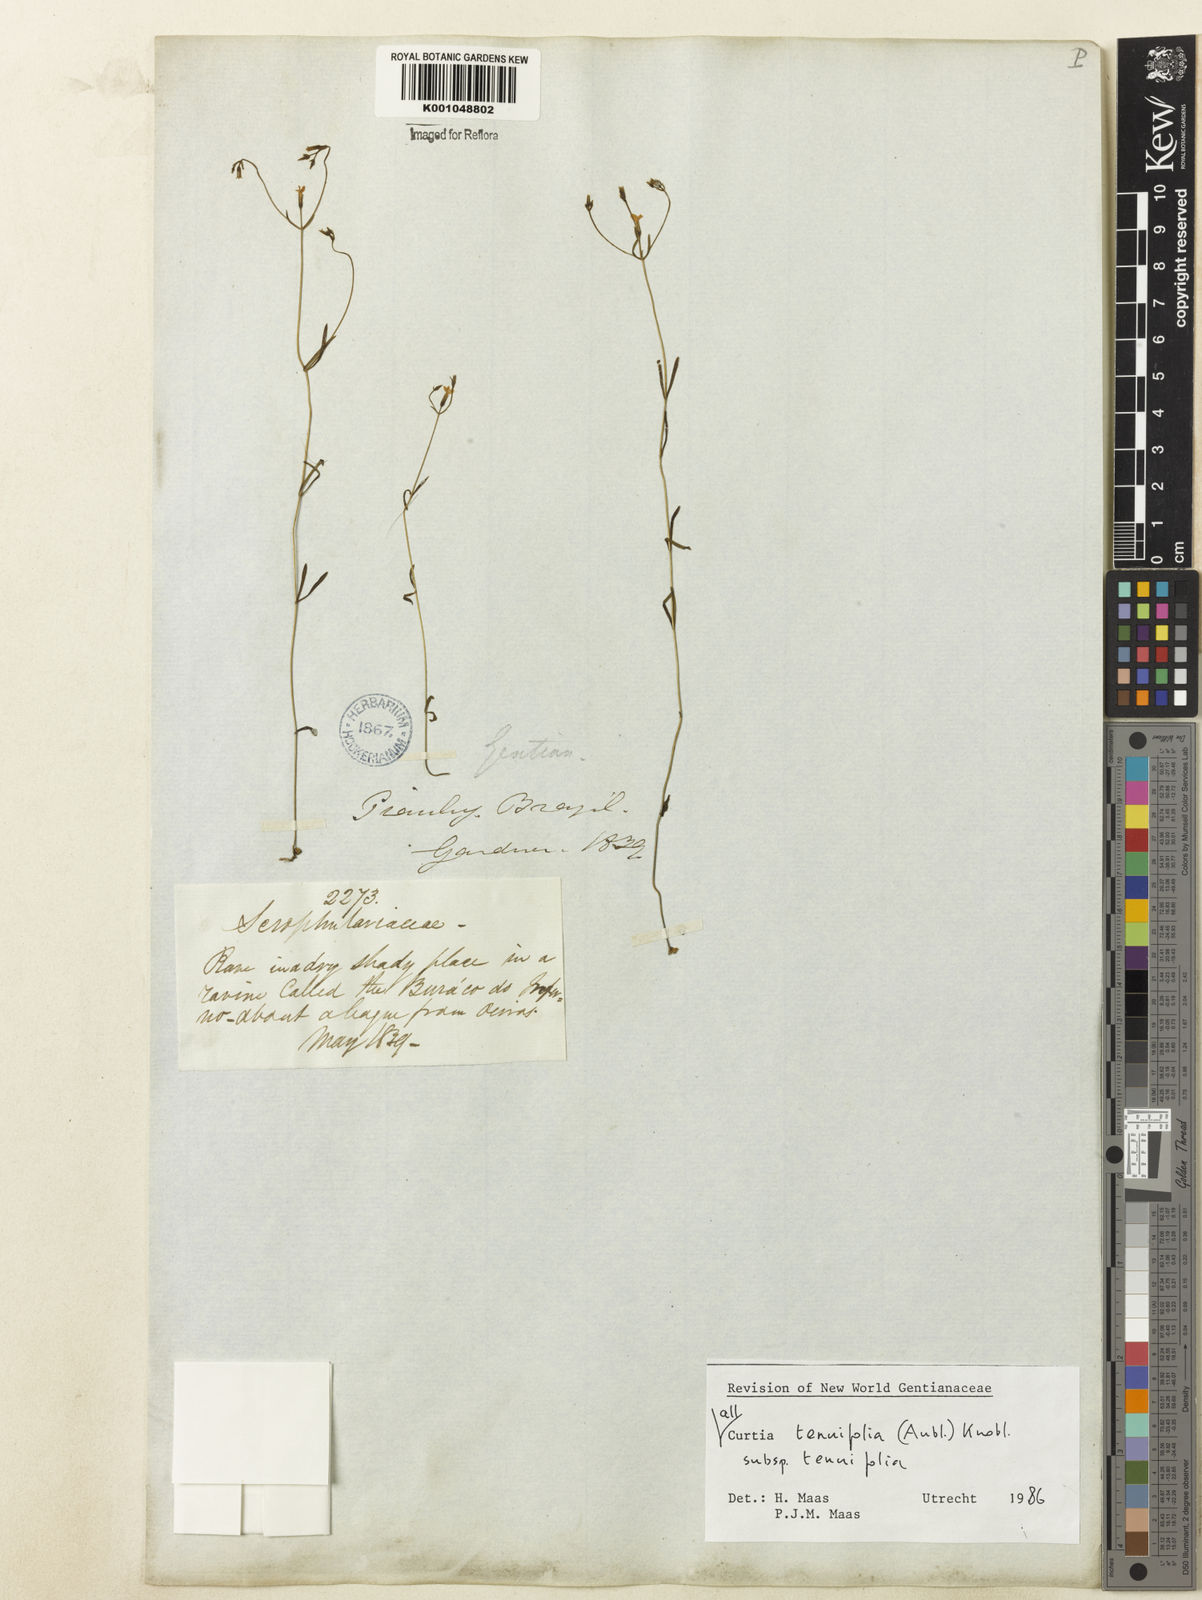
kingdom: Plantae
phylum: Tracheophyta
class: Magnoliopsida
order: Gentianales
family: Gentianaceae
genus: Curtia
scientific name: Curtia tenuifolia
